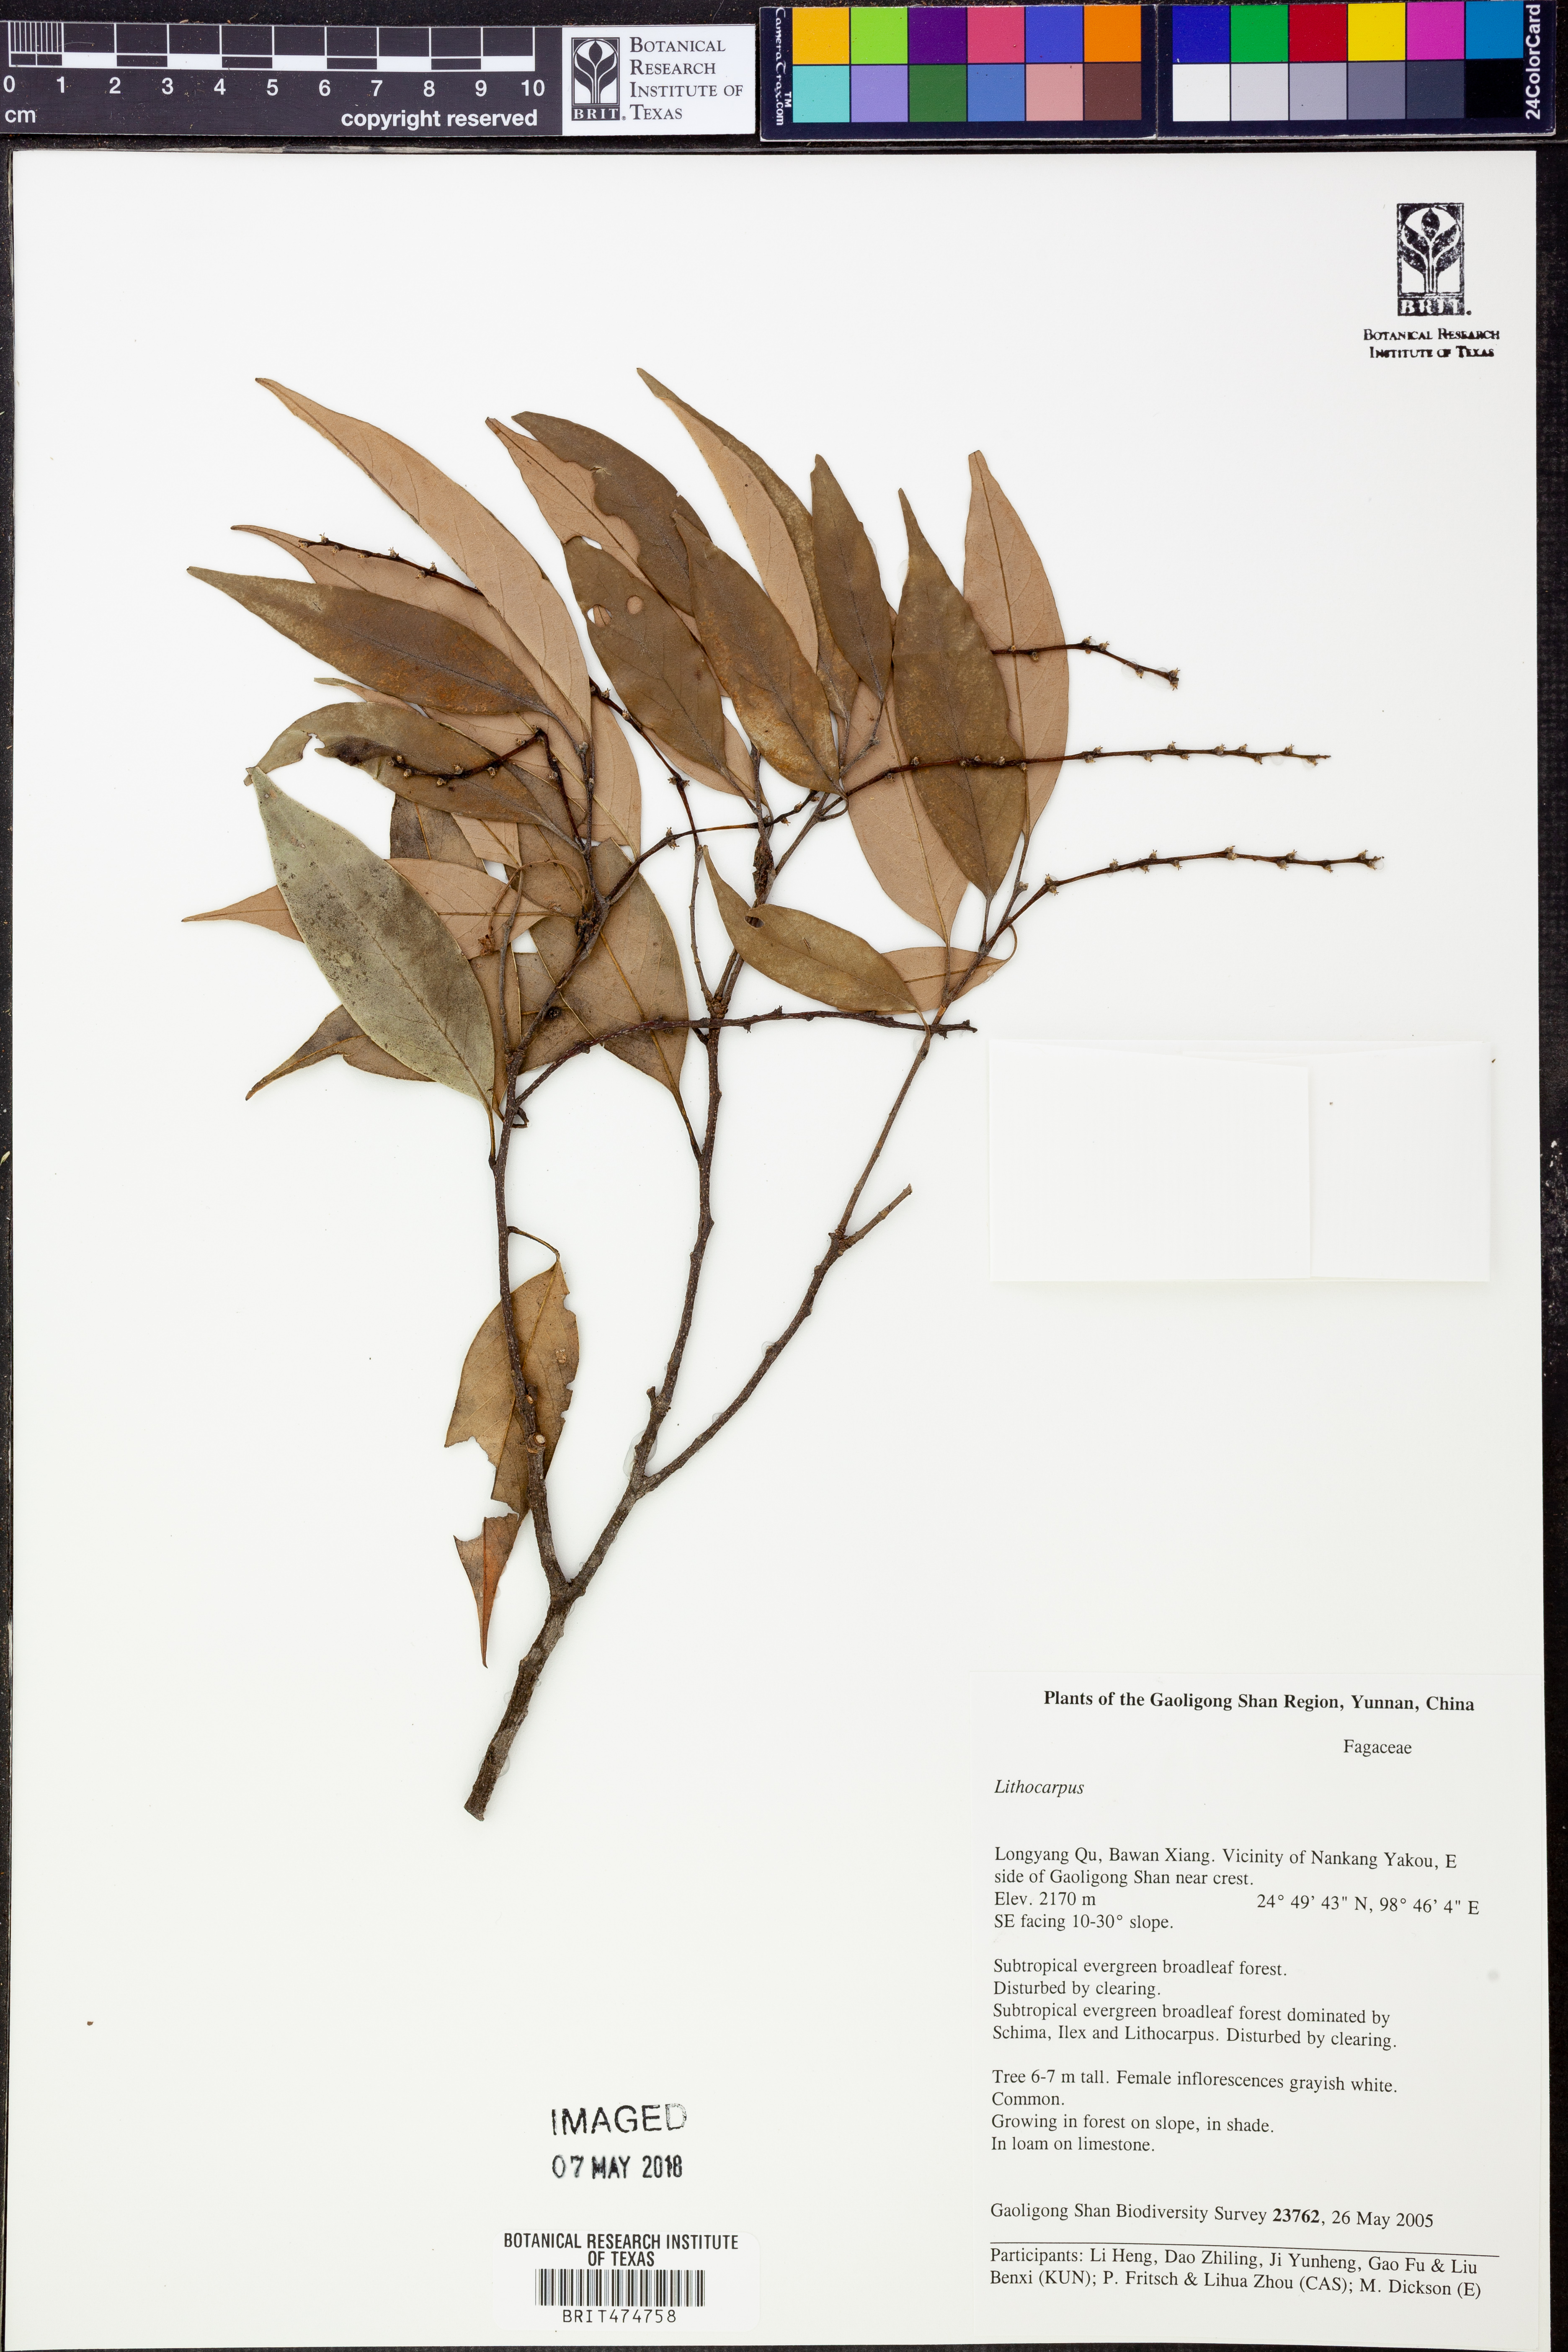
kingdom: Plantae
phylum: Tracheophyta
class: Magnoliopsida
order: Fagales
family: Fagaceae
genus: Lithocarpus
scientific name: Lithocarpus
